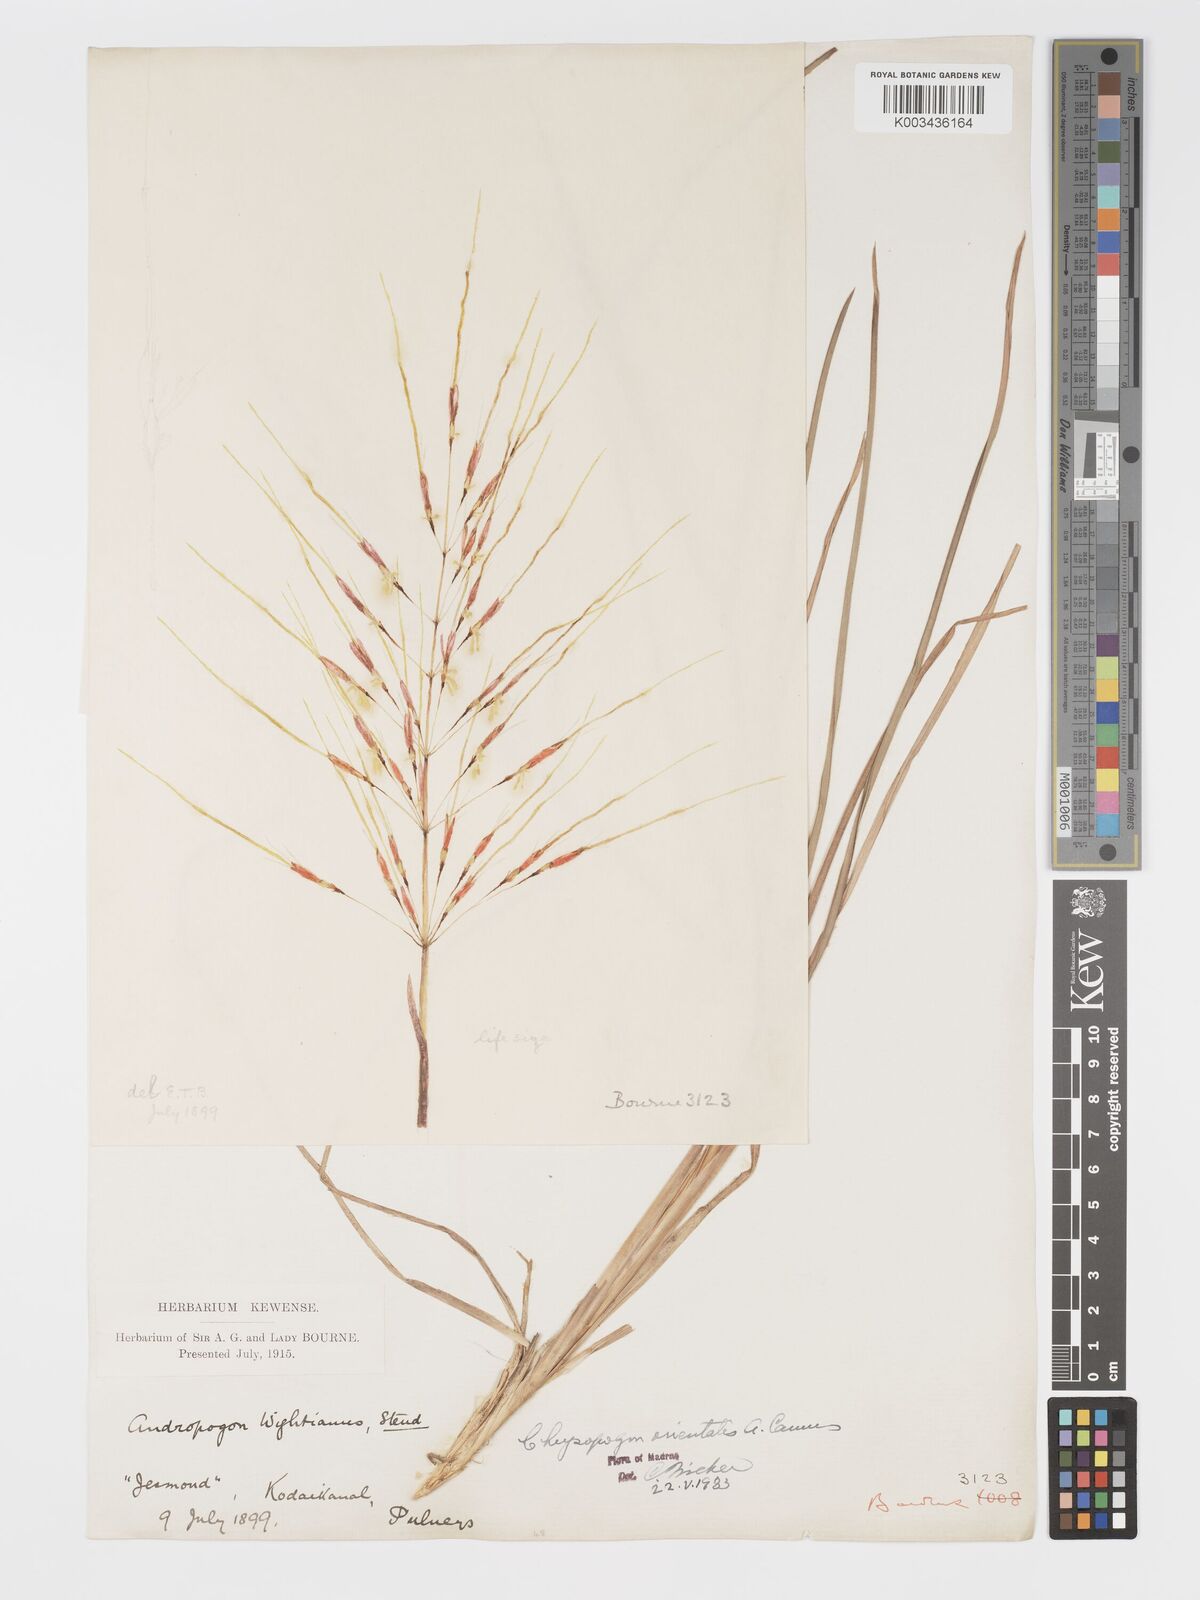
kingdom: Plantae
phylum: Tracheophyta
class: Liliopsida
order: Poales
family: Poaceae
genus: Chrysopogon
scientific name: Chrysopogon orientalis
